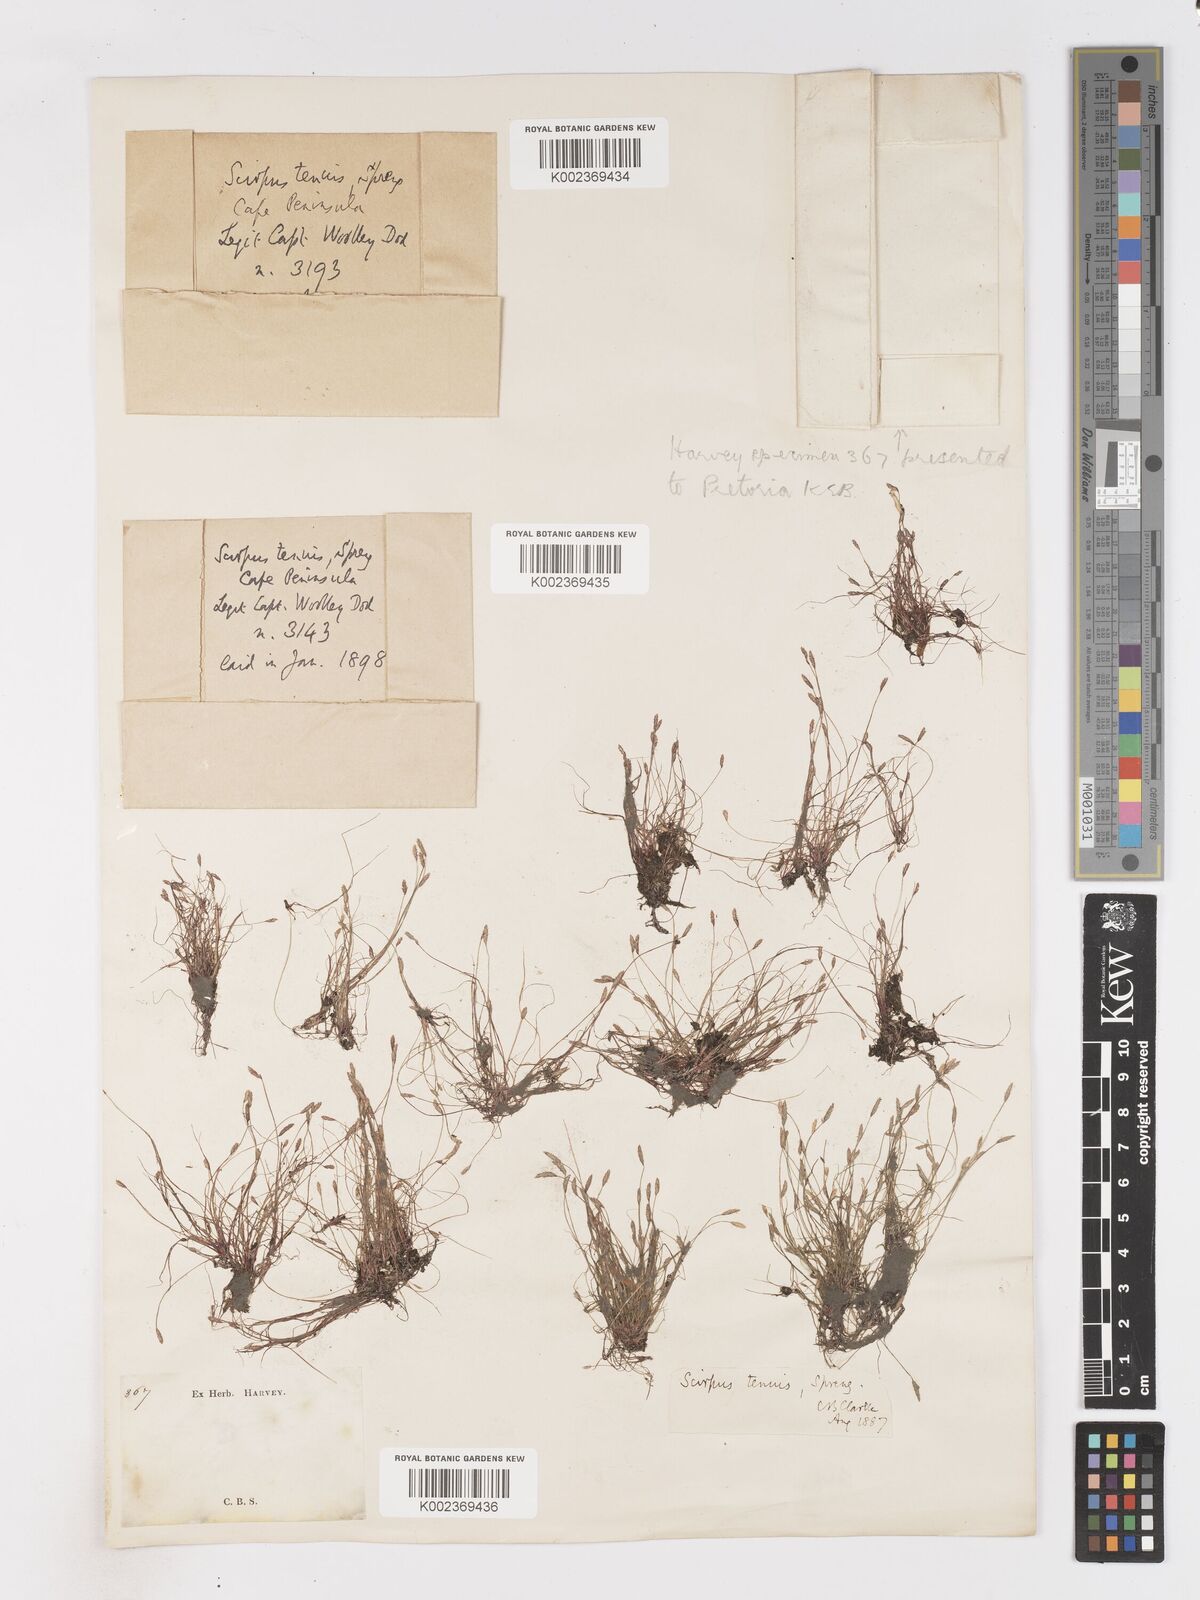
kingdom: Plantae
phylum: Tracheophyta
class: Liliopsida
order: Poales
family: Cyperaceae
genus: Isolepis
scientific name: Isolepis tenuissima
